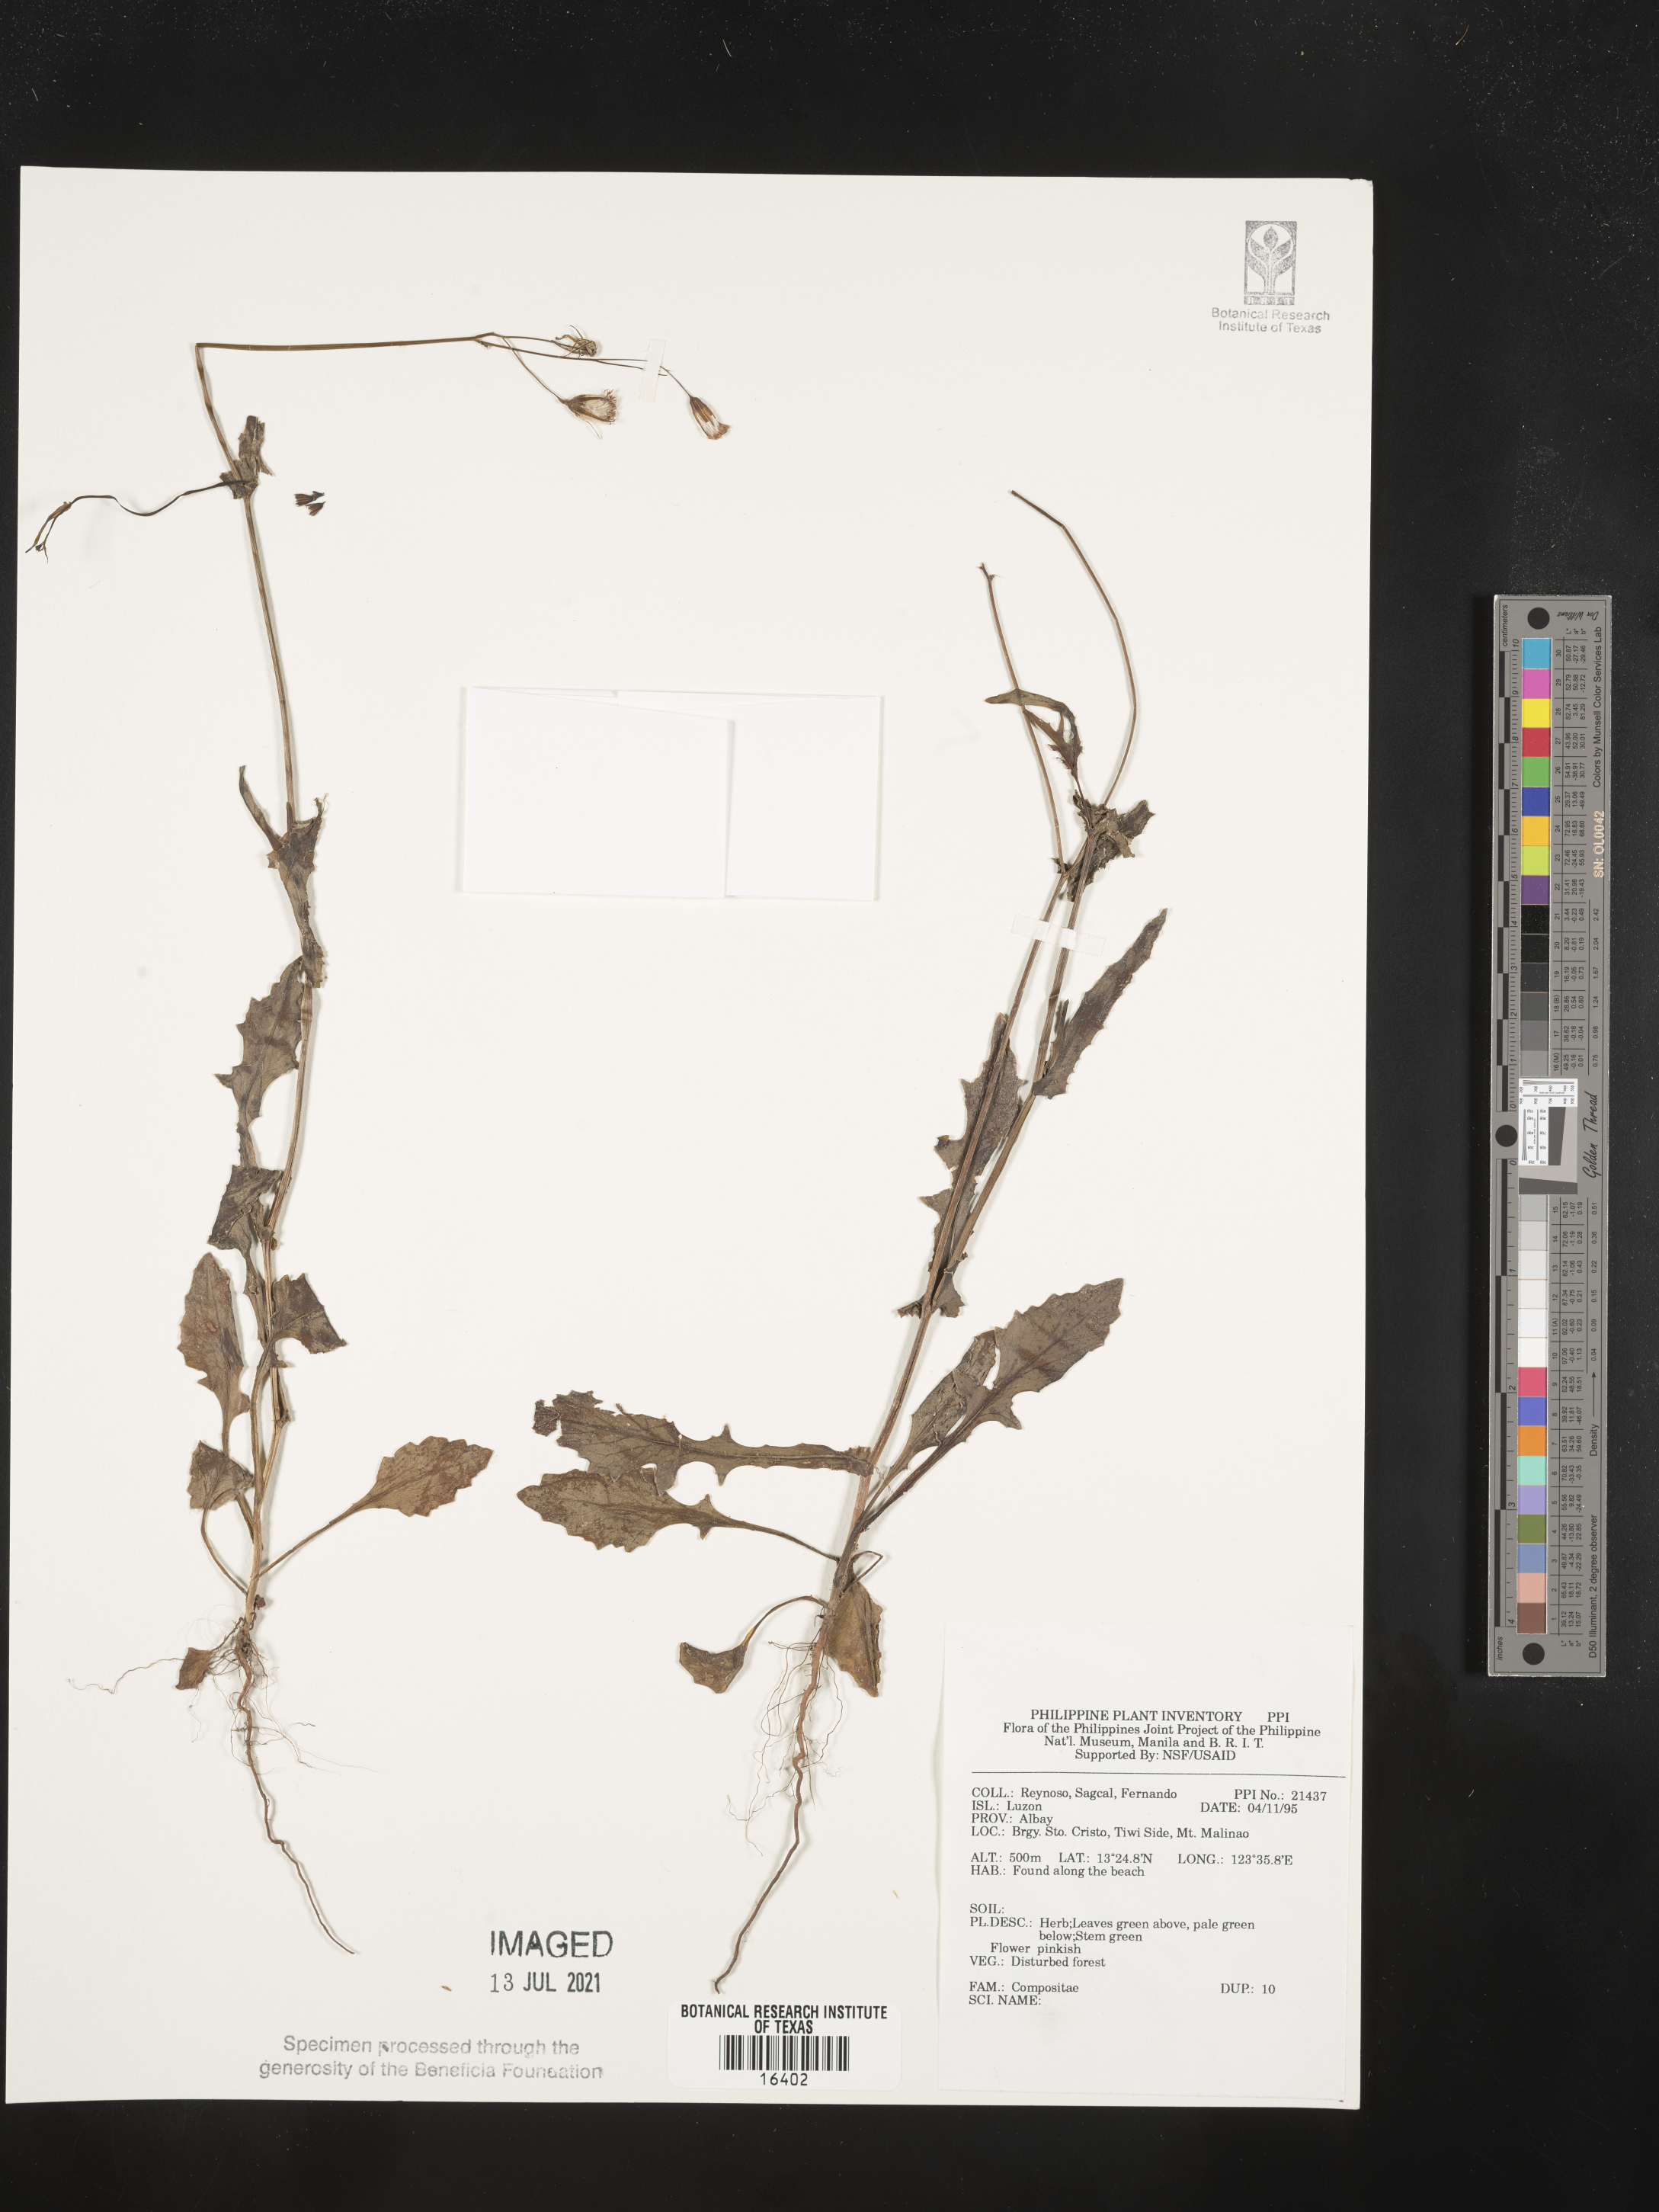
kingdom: Plantae
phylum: Tracheophyta
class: Magnoliopsida
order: Asterales
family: Asteraceae
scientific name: Asteraceae
